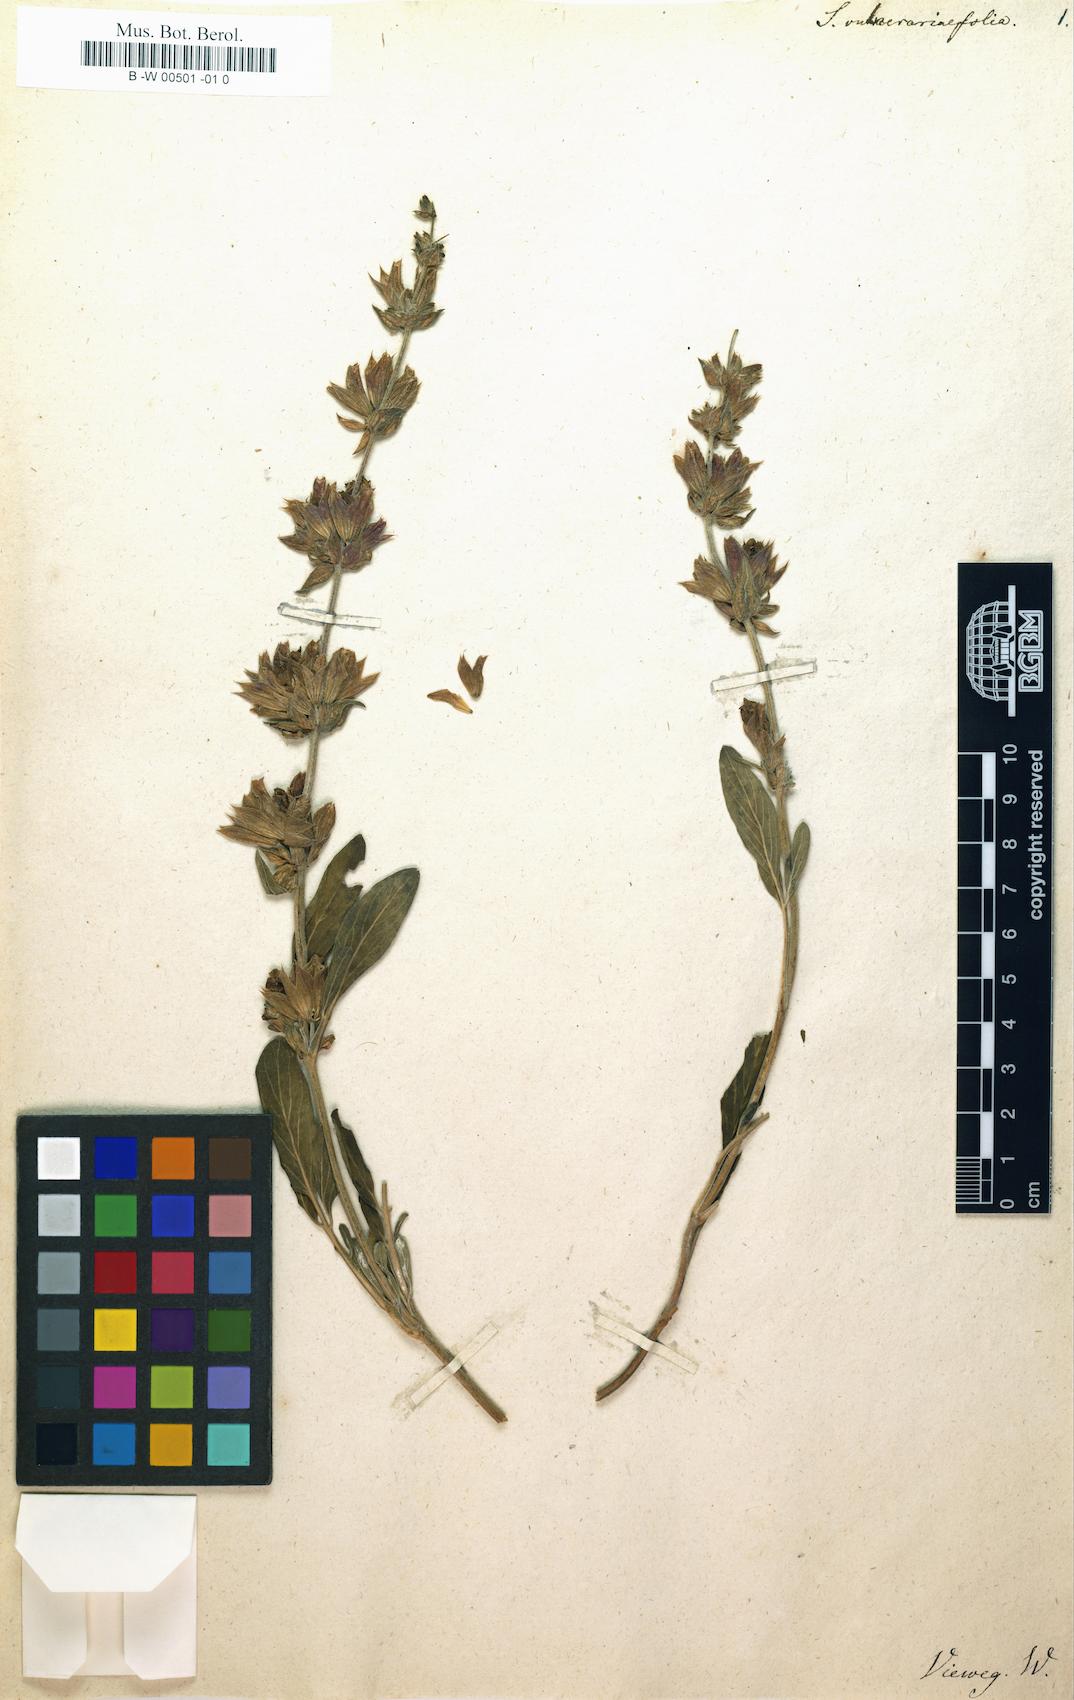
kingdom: Plantae
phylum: Tracheophyta
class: Magnoliopsida
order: Lamiales
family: Lamiaceae
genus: Salvia
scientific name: Salvia scabiosifolia
